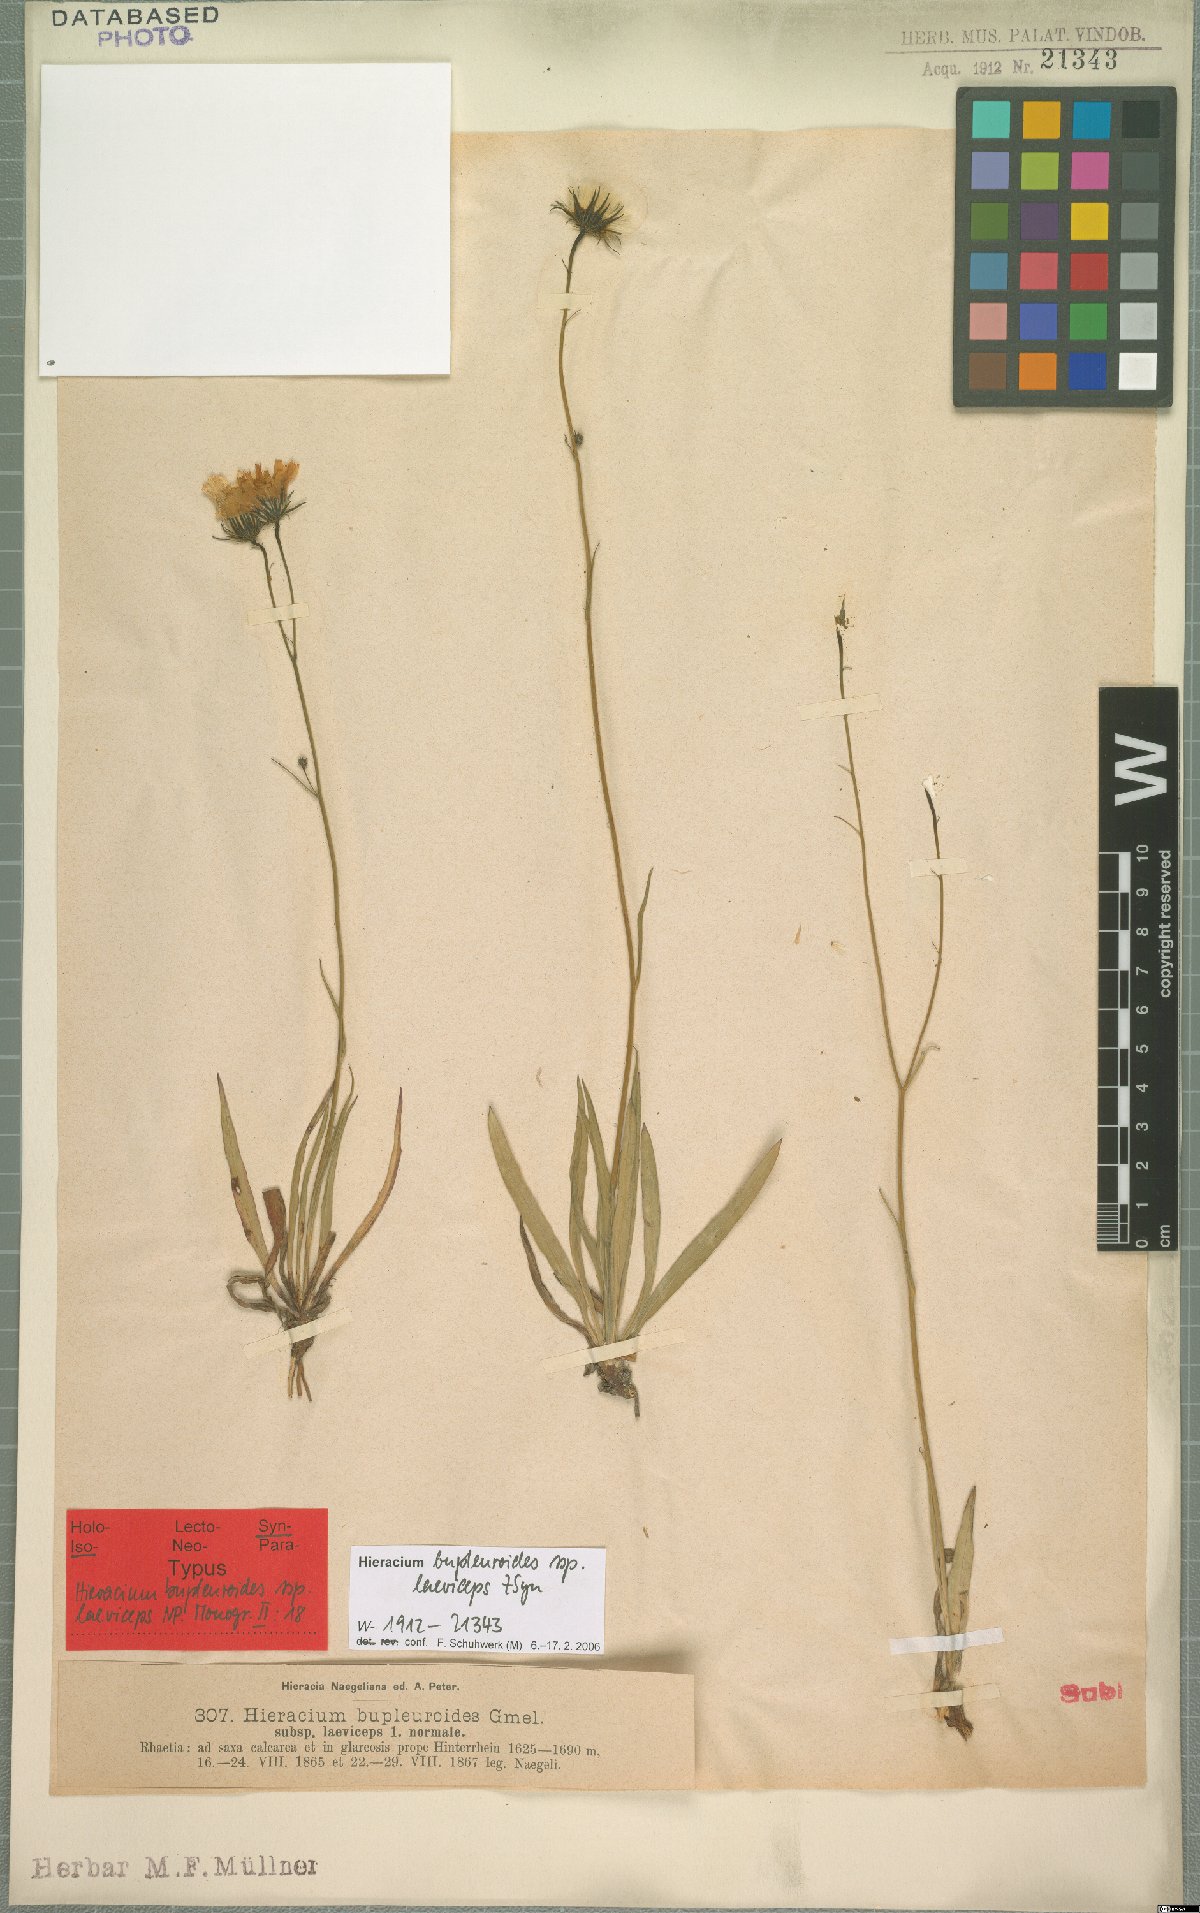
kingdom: Plantae
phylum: Tracheophyta
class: Magnoliopsida
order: Asterales
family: Asteraceae
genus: Hieracium
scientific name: Hieracium bupleuroides
